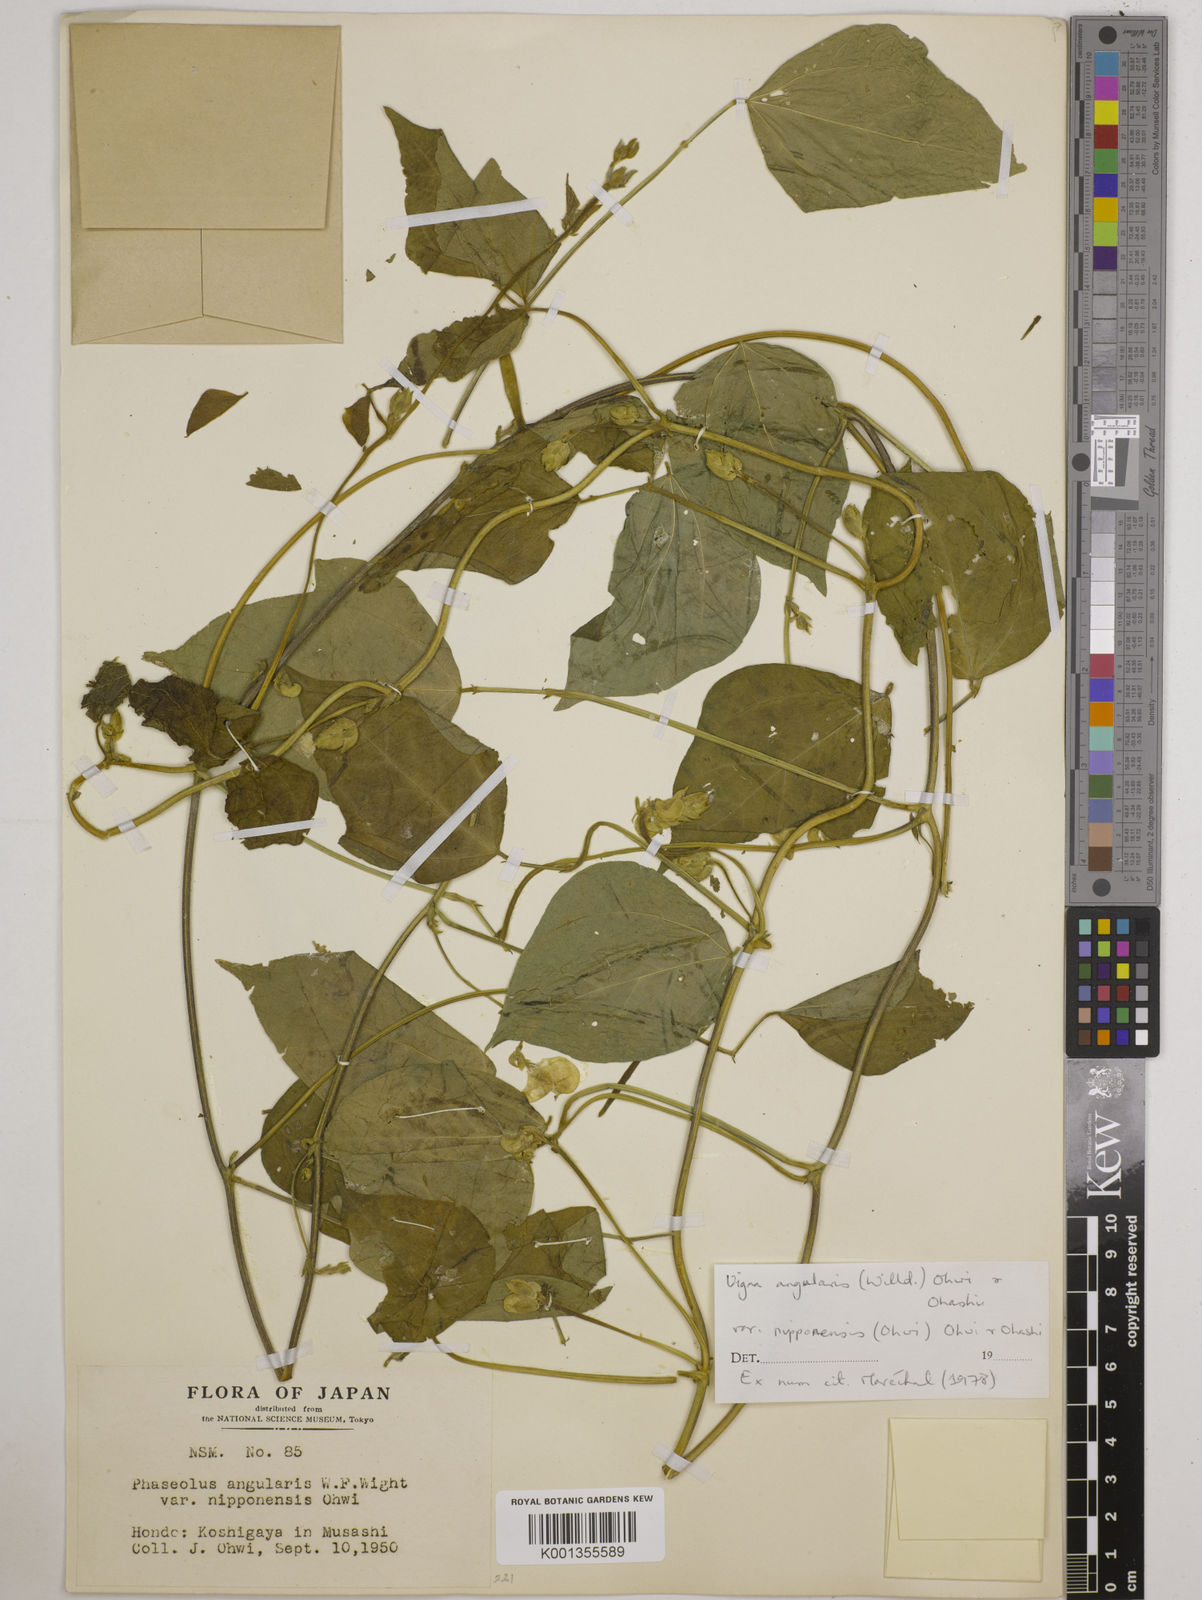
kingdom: Plantae
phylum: Tracheophyta
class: Magnoliopsida
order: Fabales
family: Fabaceae
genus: Vigna
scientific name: Vigna
